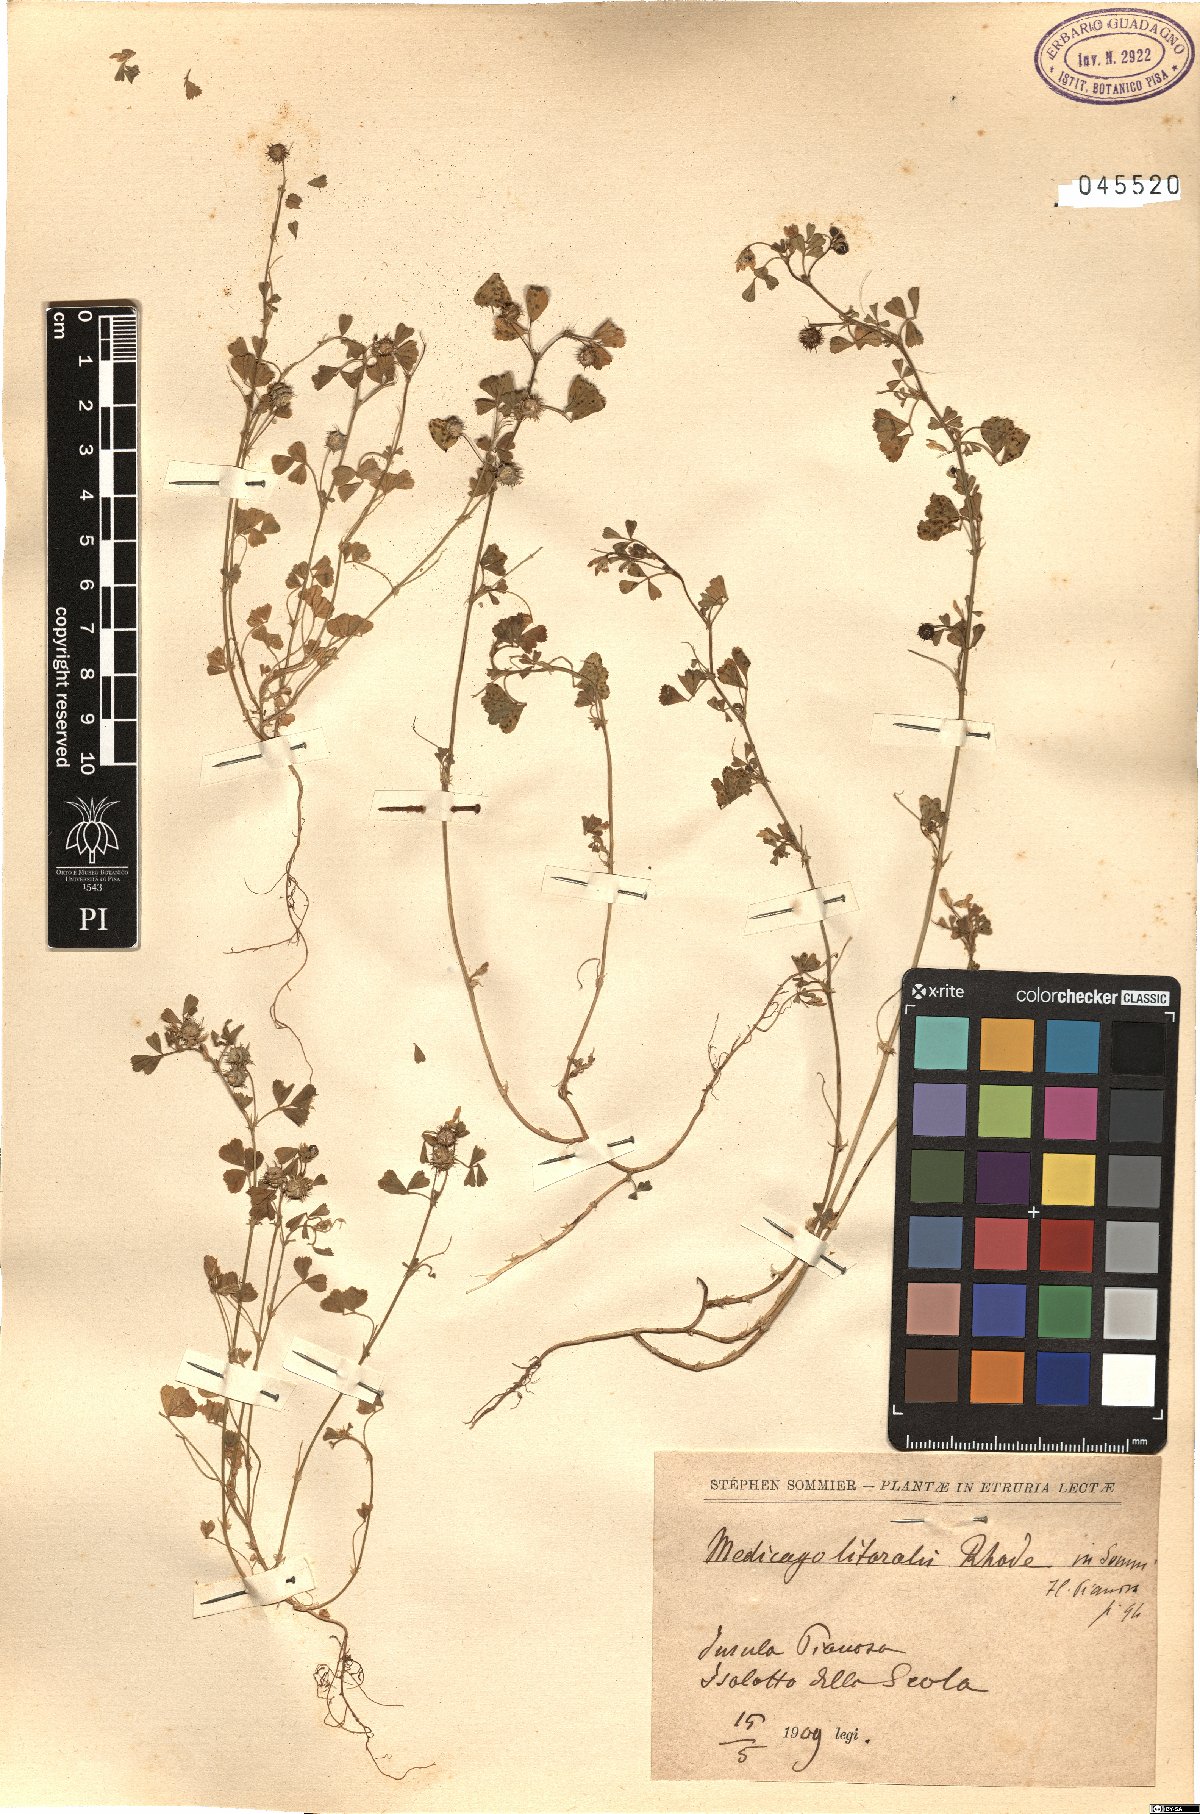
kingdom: Plantae
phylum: Tracheophyta
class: Magnoliopsida
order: Fabales
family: Fabaceae
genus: Medicago
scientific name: Medicago littoralis
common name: Shore medick
